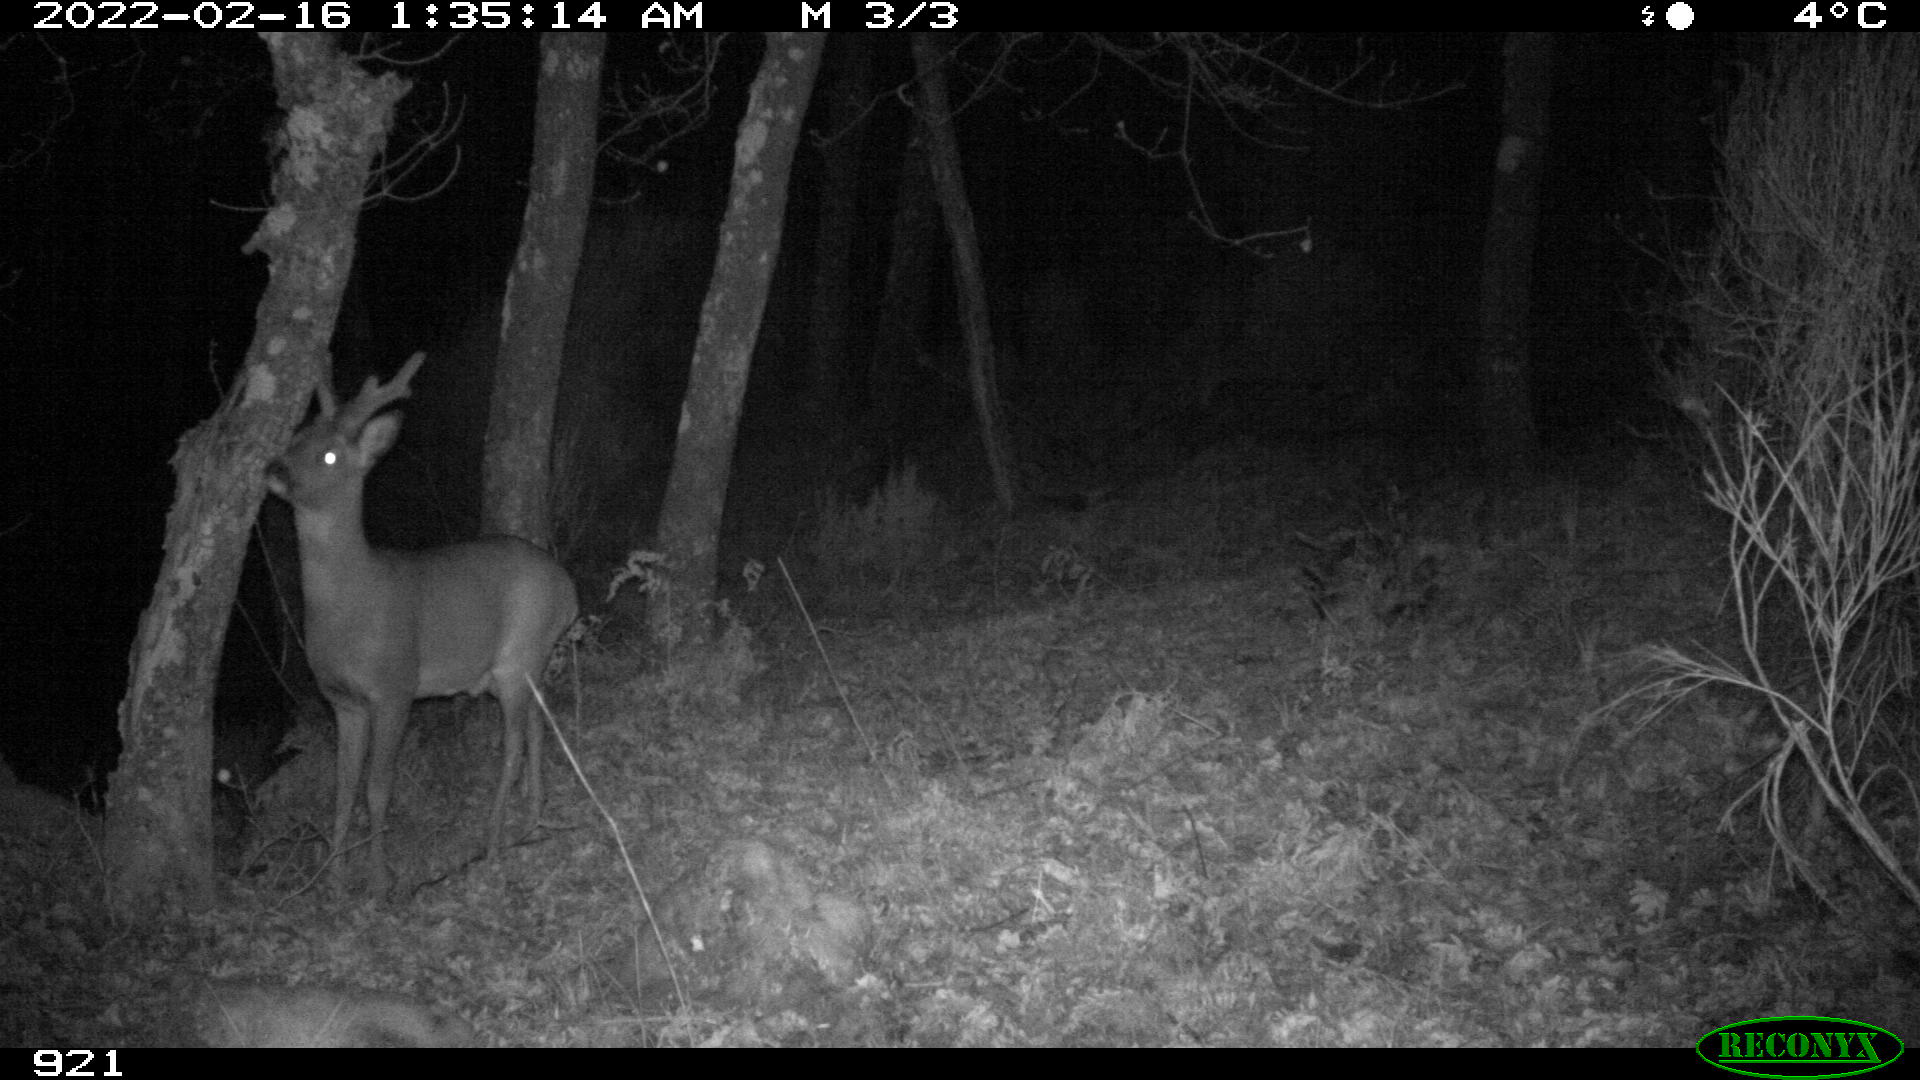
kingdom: Animalia
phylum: Chordata
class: Mammalia
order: Artiodactyla
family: Cervidae
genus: Capreolus
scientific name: Capreolus capreolus
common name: Western roe deer
